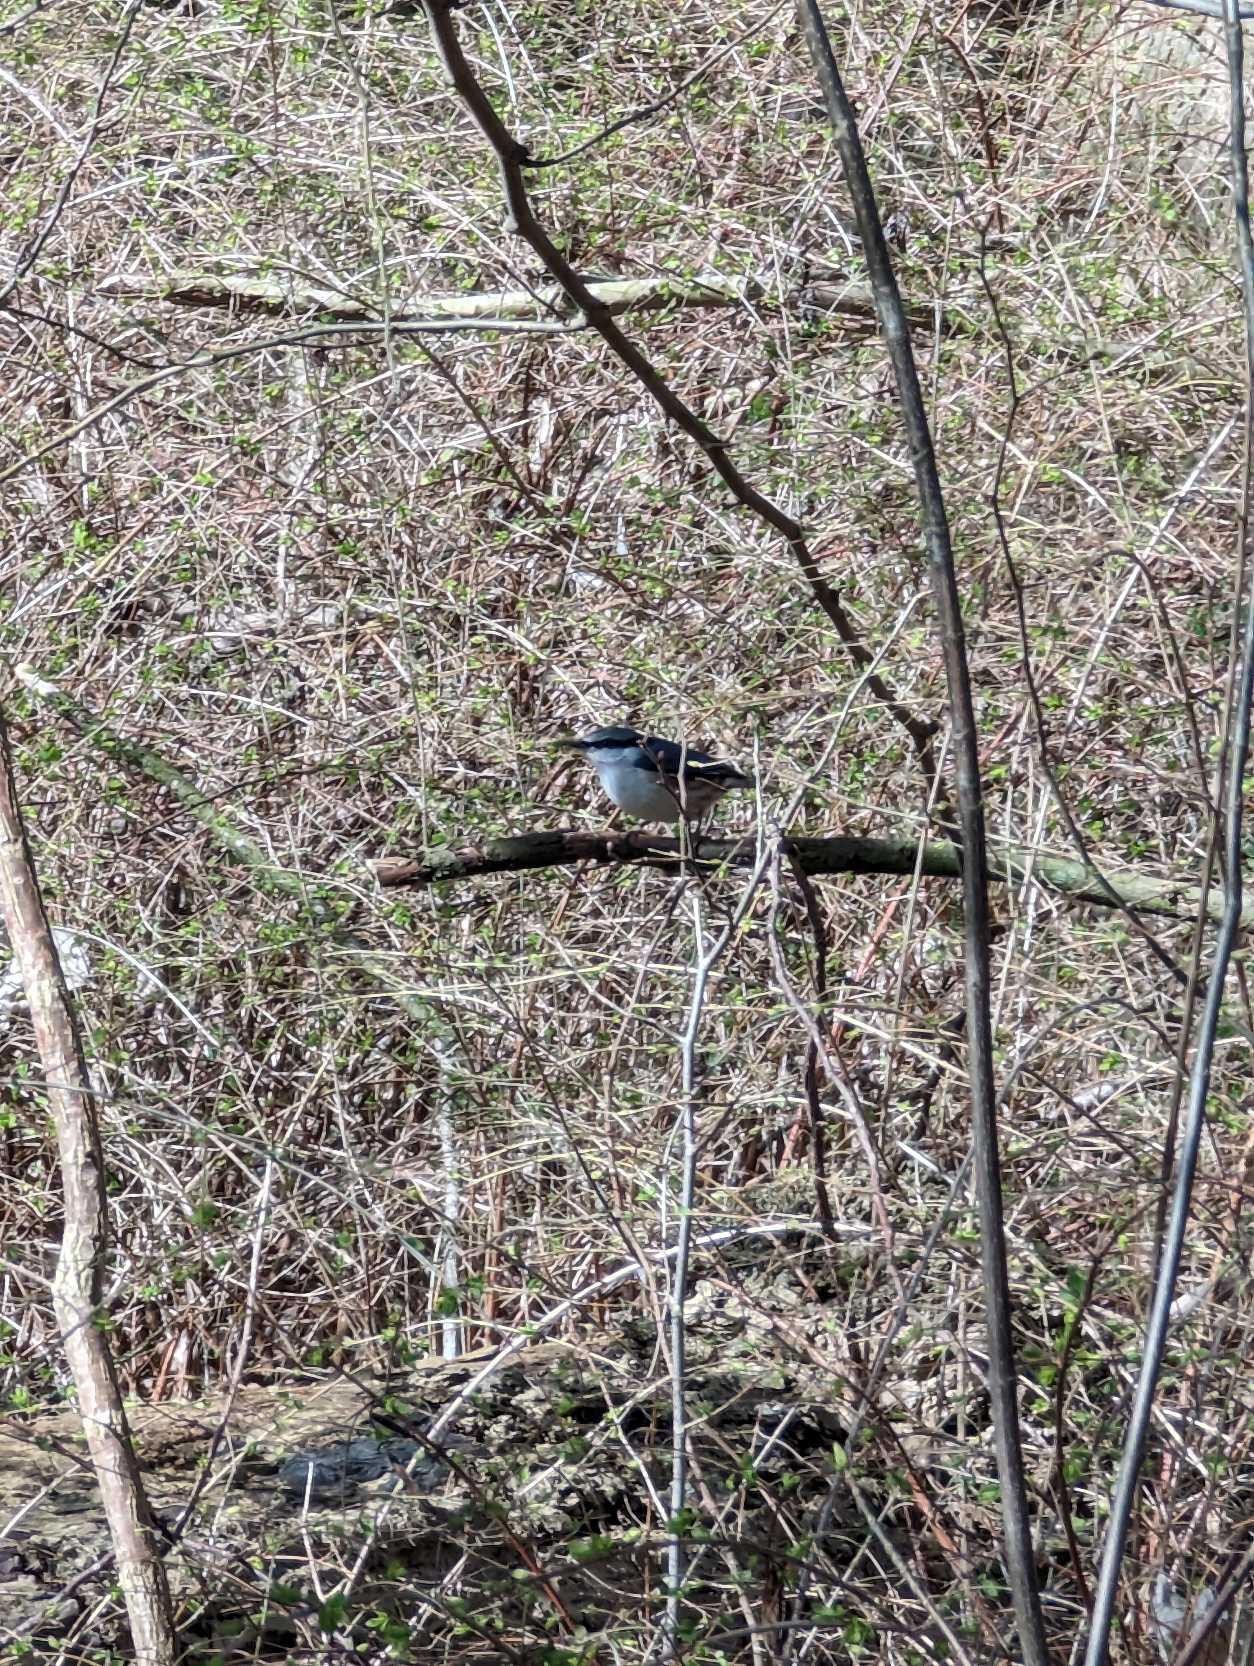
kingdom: Animalia
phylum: Chordata
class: Aves
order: Passeriformes
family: Sittidae
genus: Sitta
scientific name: Sitta europaea
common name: Spætmejse
